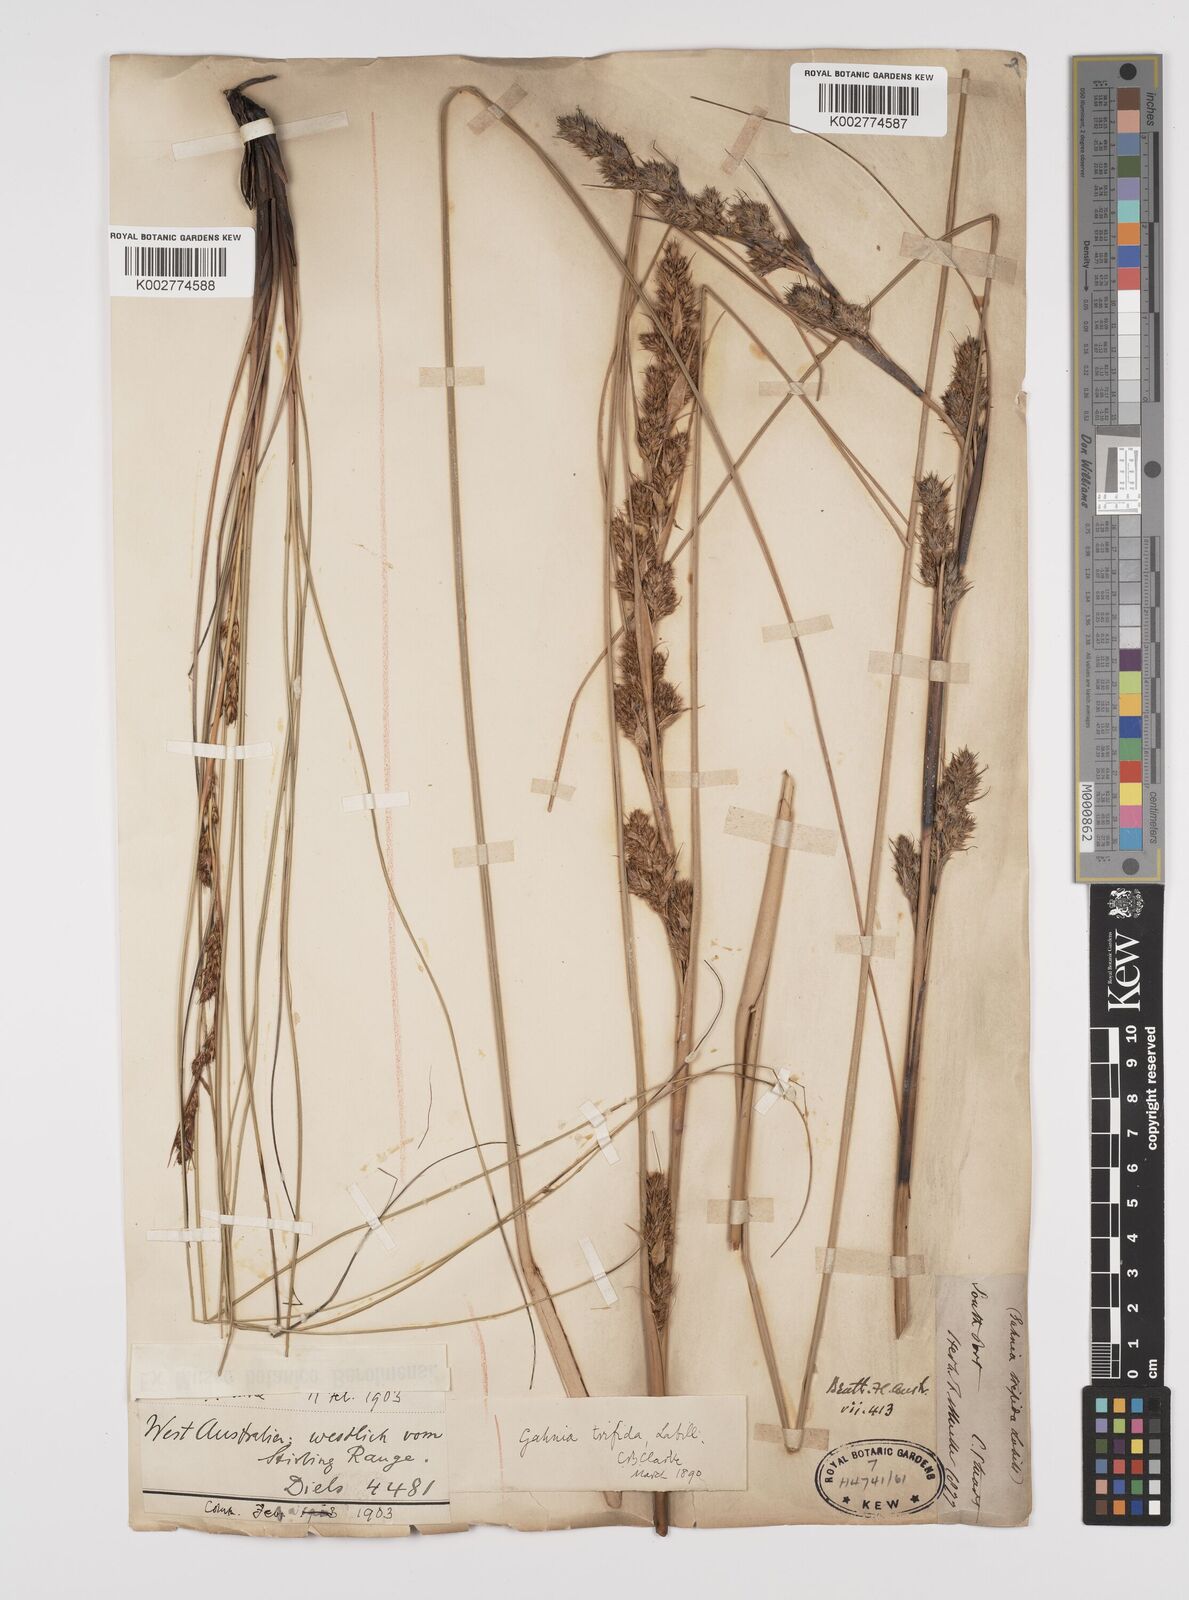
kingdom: Plantae
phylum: Tracheophyta
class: Liliopsida
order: Poales
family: Cyperaceae
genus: Gahnia
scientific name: Gahnia trifida
